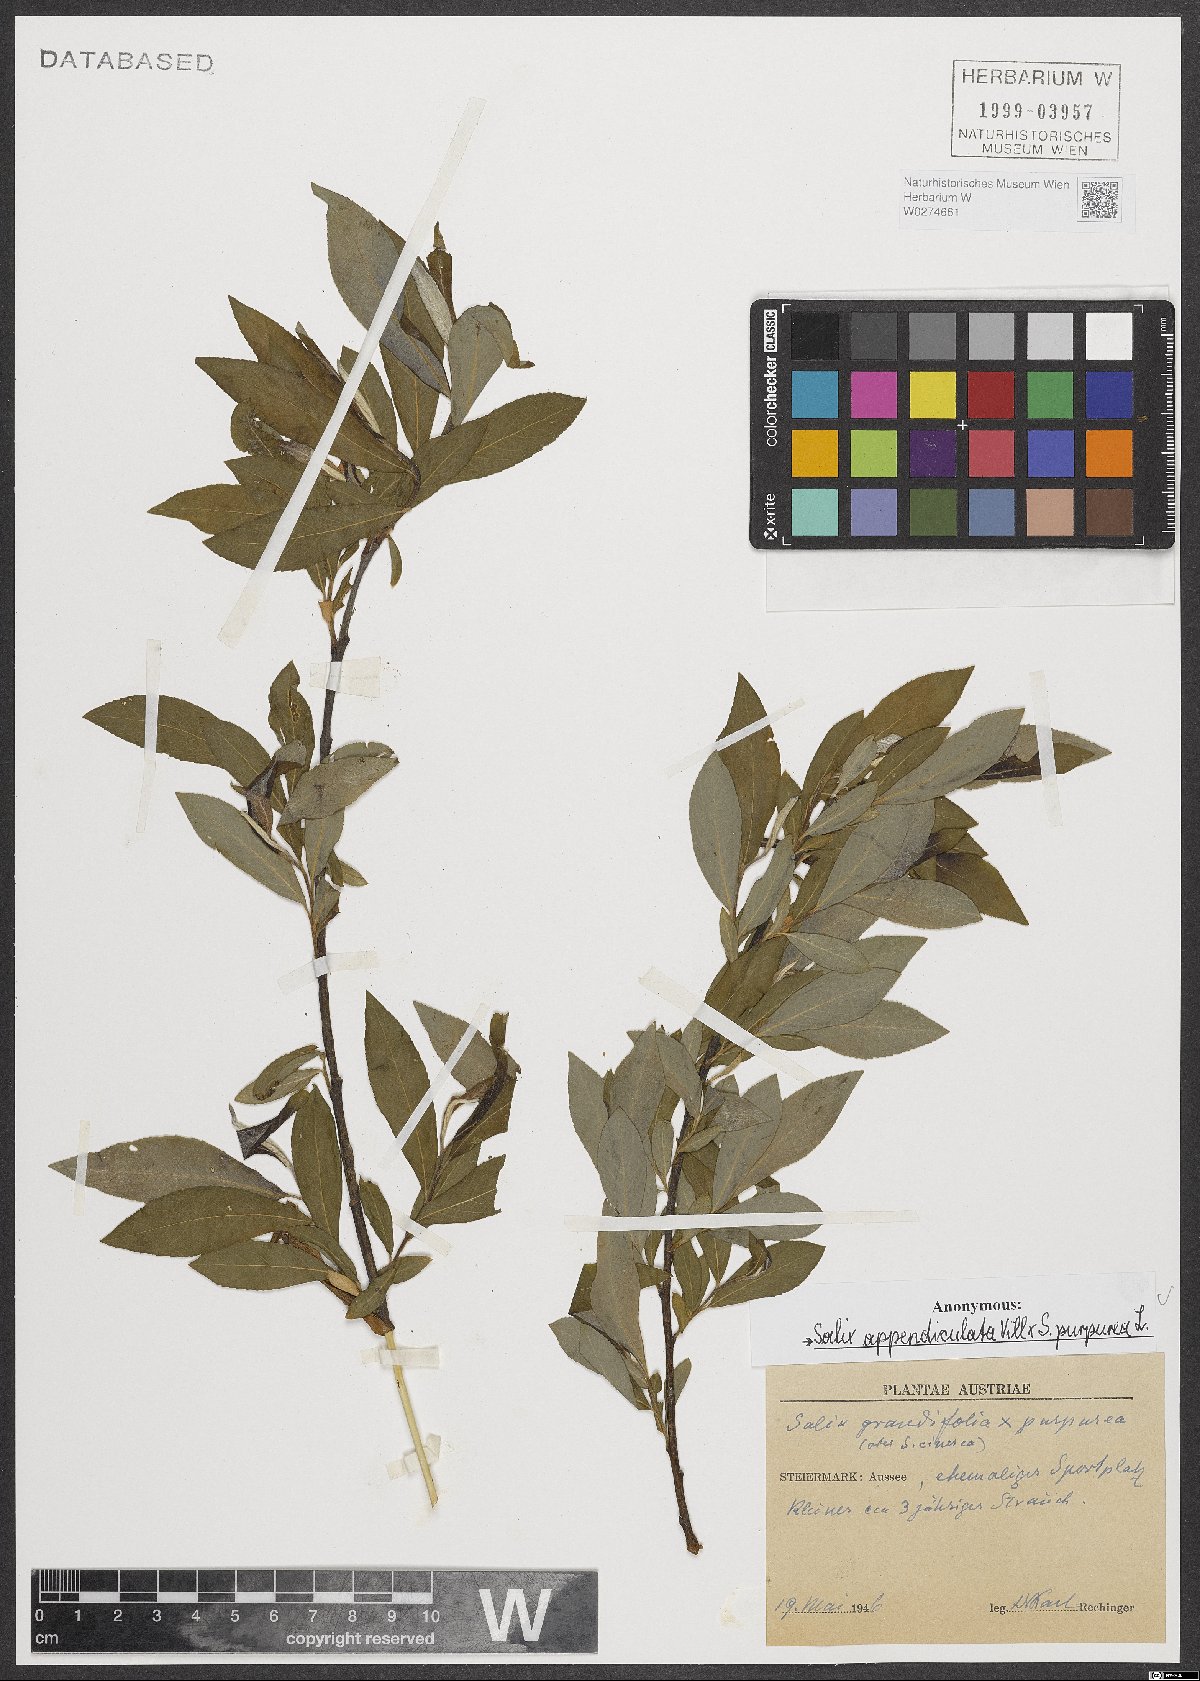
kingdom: Plantae
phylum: Tracheophyta
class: Magnoliopsida
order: Malpighiales
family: Salicaceae
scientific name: Salicaceae
